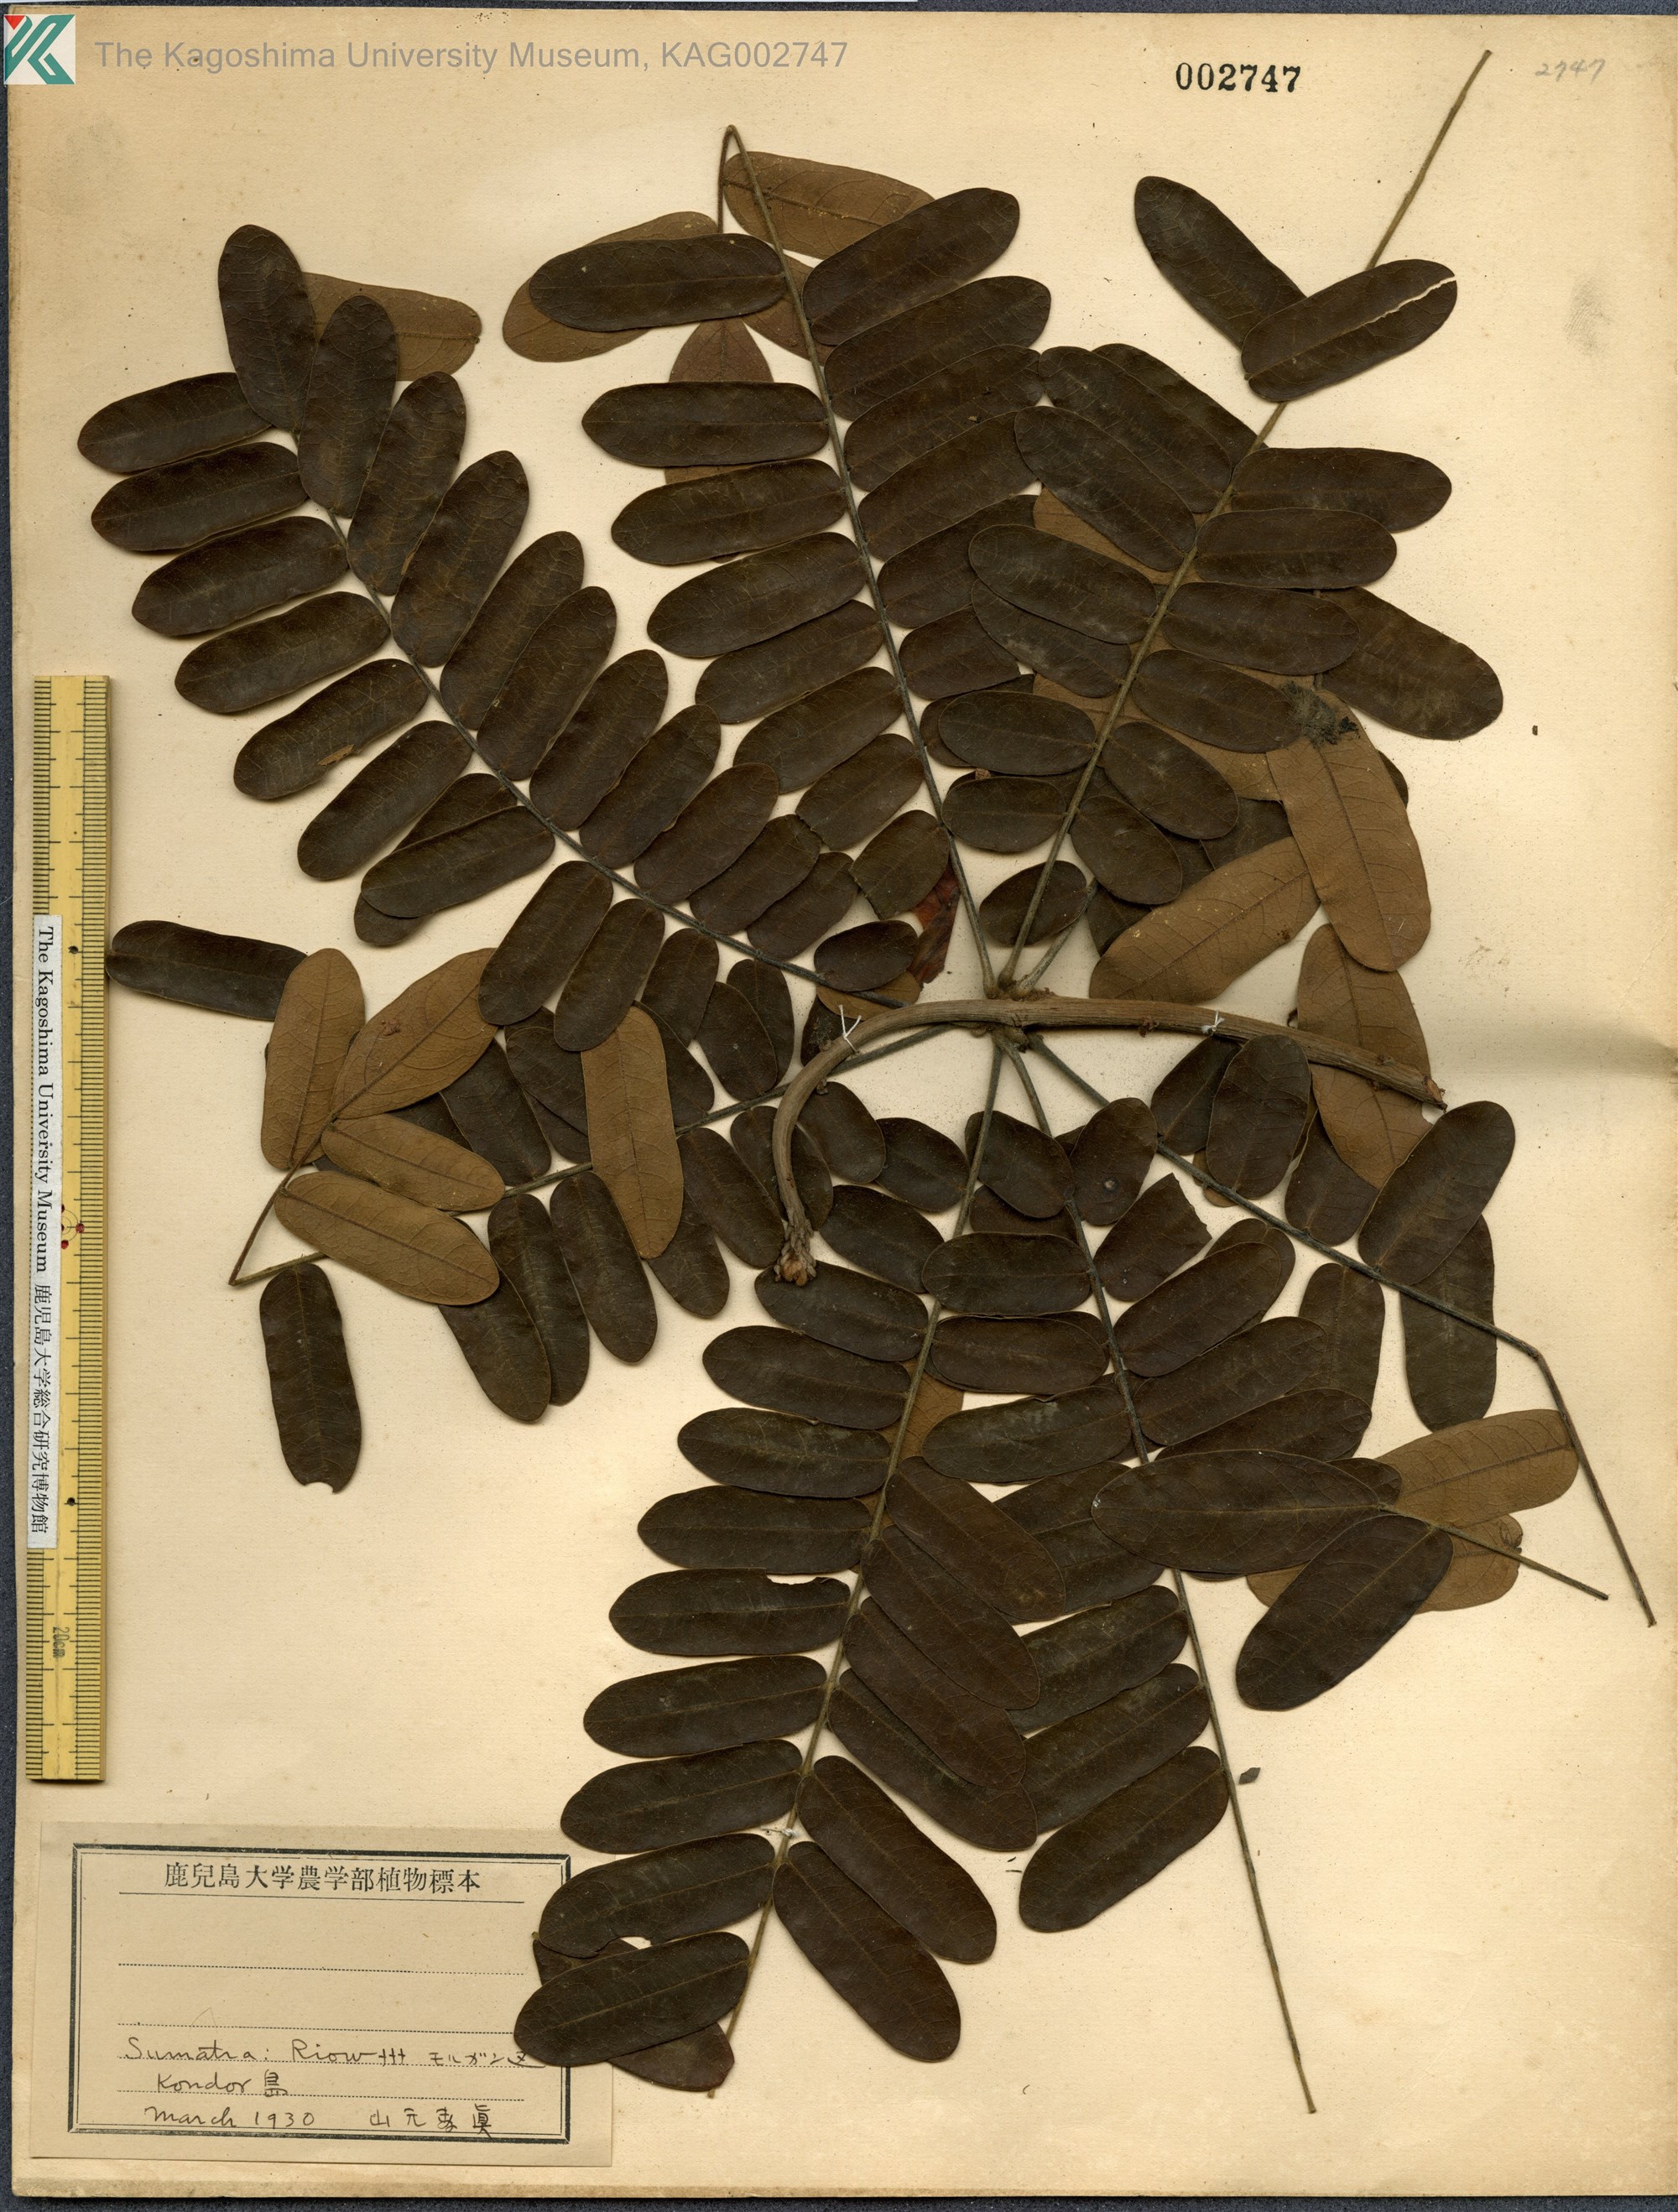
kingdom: Plantae
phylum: Tracheophyta
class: Magnoliopsida
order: Oxalidales
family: Connaraceae
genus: Cnestis
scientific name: Cnestis palala
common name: Stinging-hair cnestis
